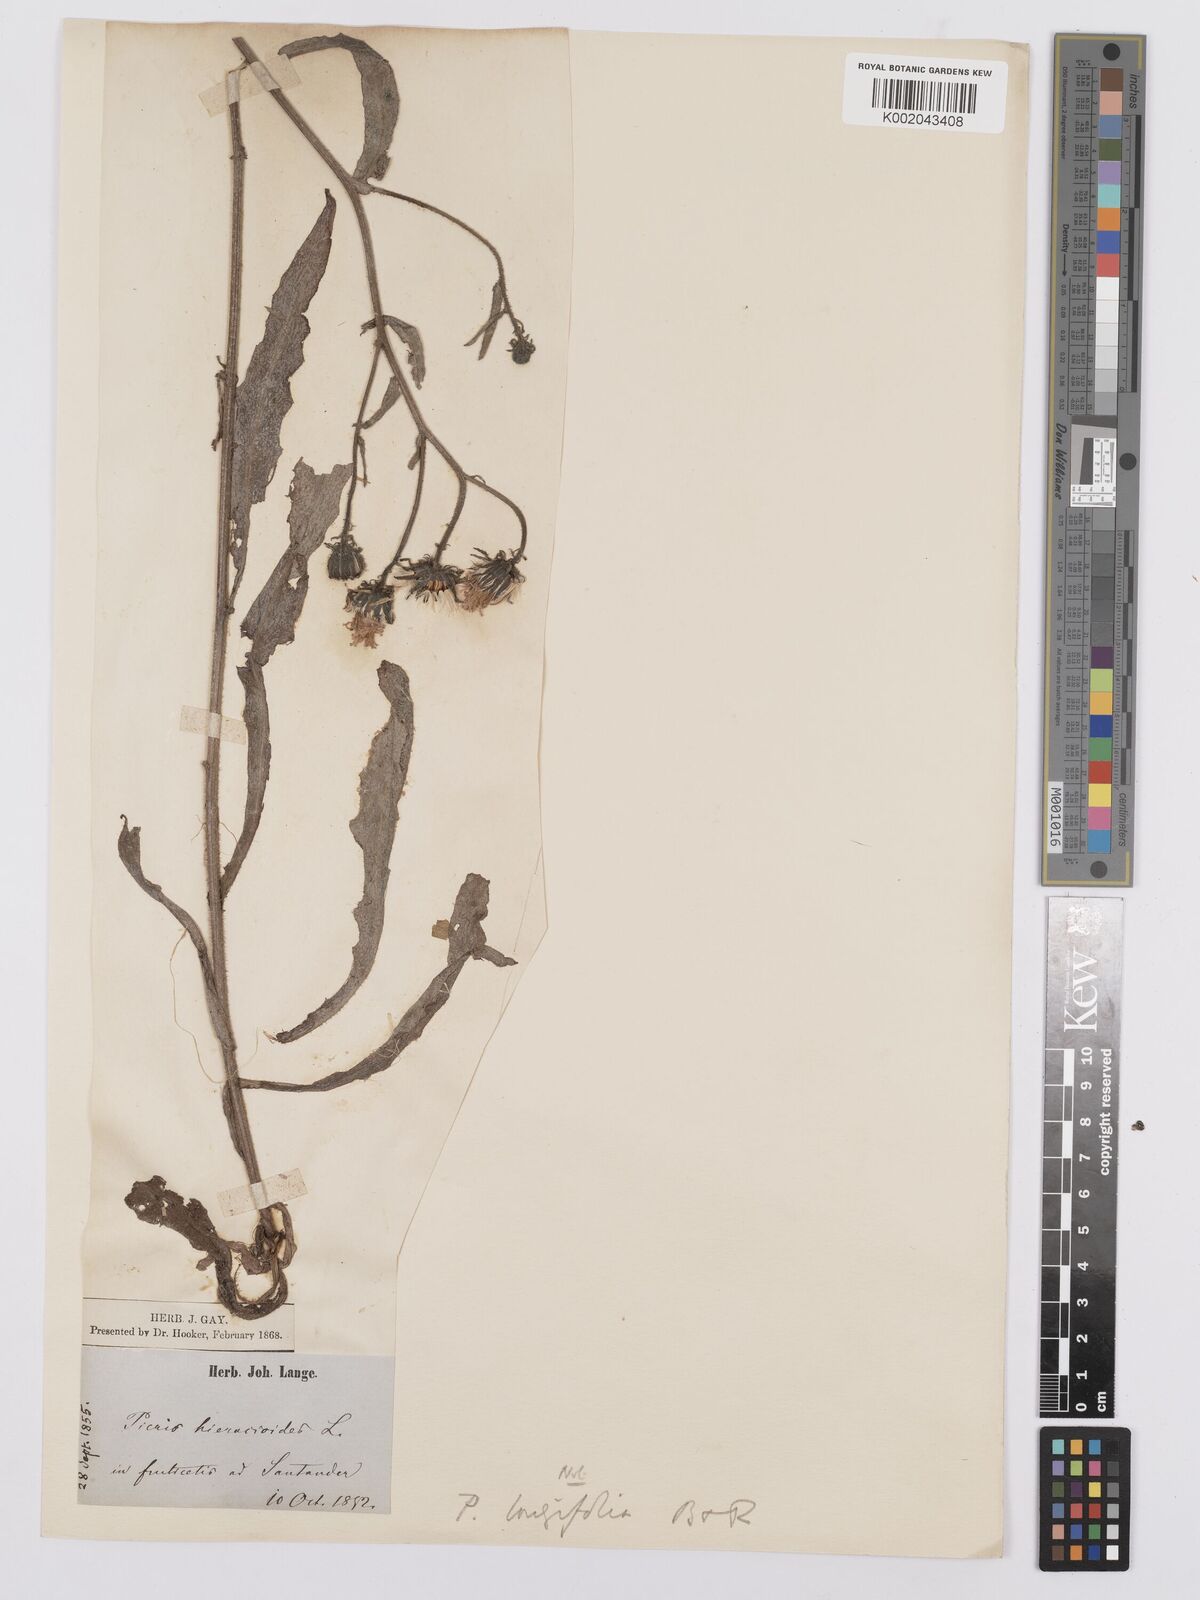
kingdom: Plantae
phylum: Tracheophyta
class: Magnoliopsida
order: Asterales
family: Asteraceae
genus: Picris
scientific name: Picris hieracioides
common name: Hawkweed oxtongue
